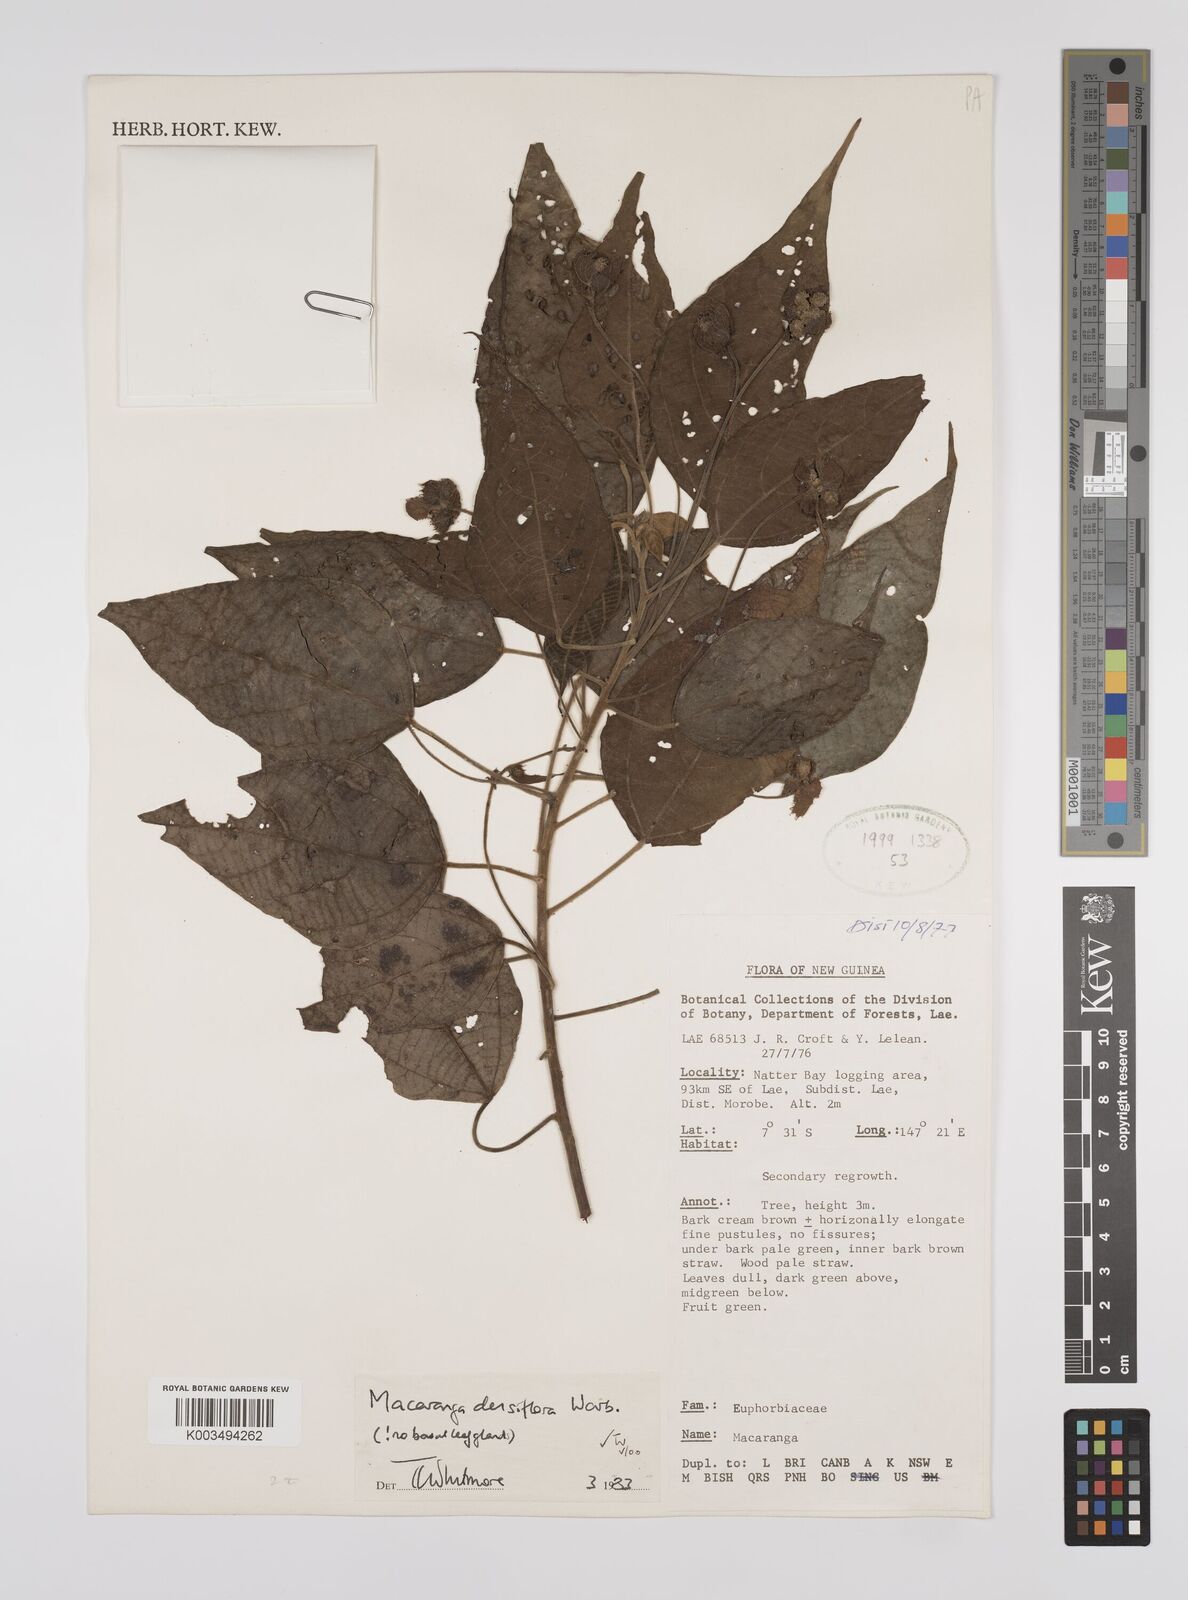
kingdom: Plantae
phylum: Tracheophyta
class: Magnoliopsida
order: Malpighiales
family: Euphorbiaceae
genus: Macaranga
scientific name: Macaranga densiflora
